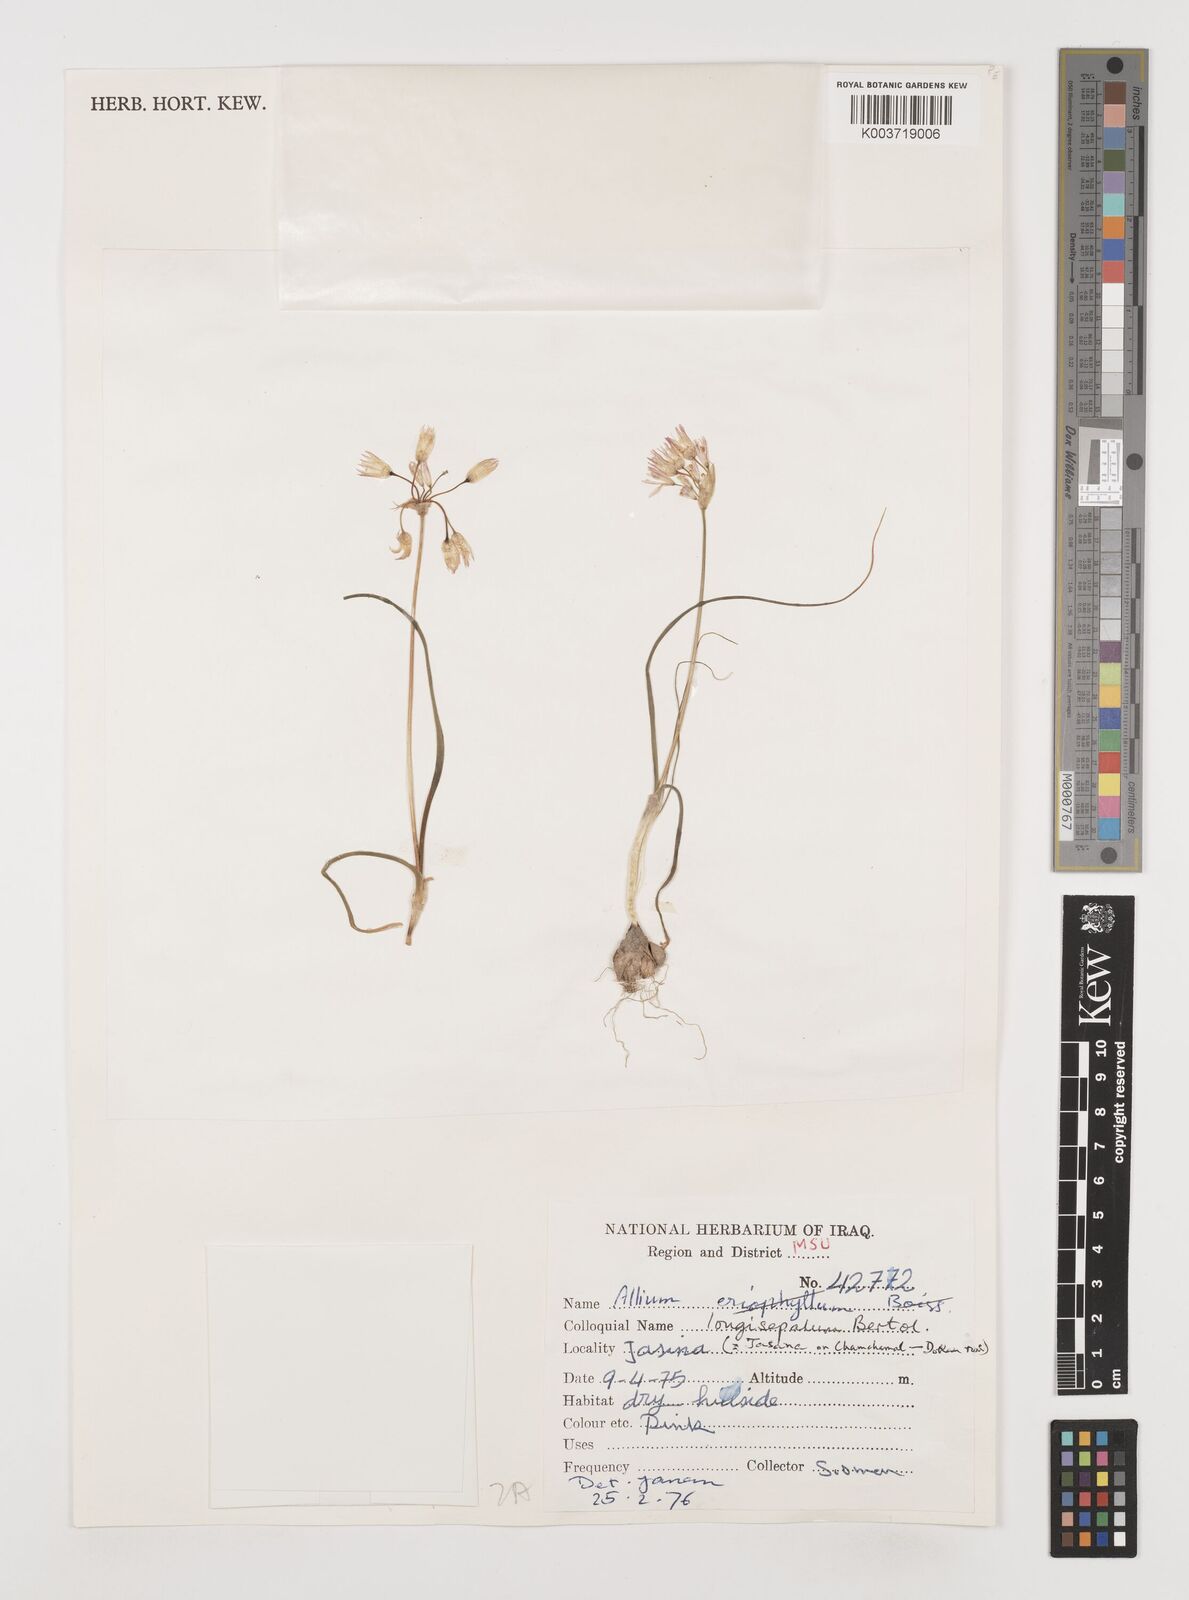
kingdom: Plantae
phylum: Tracheophyta
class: Liliopsida
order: Asparagales
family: Amaryllidaceae
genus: Allium
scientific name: Allium longisepalum
